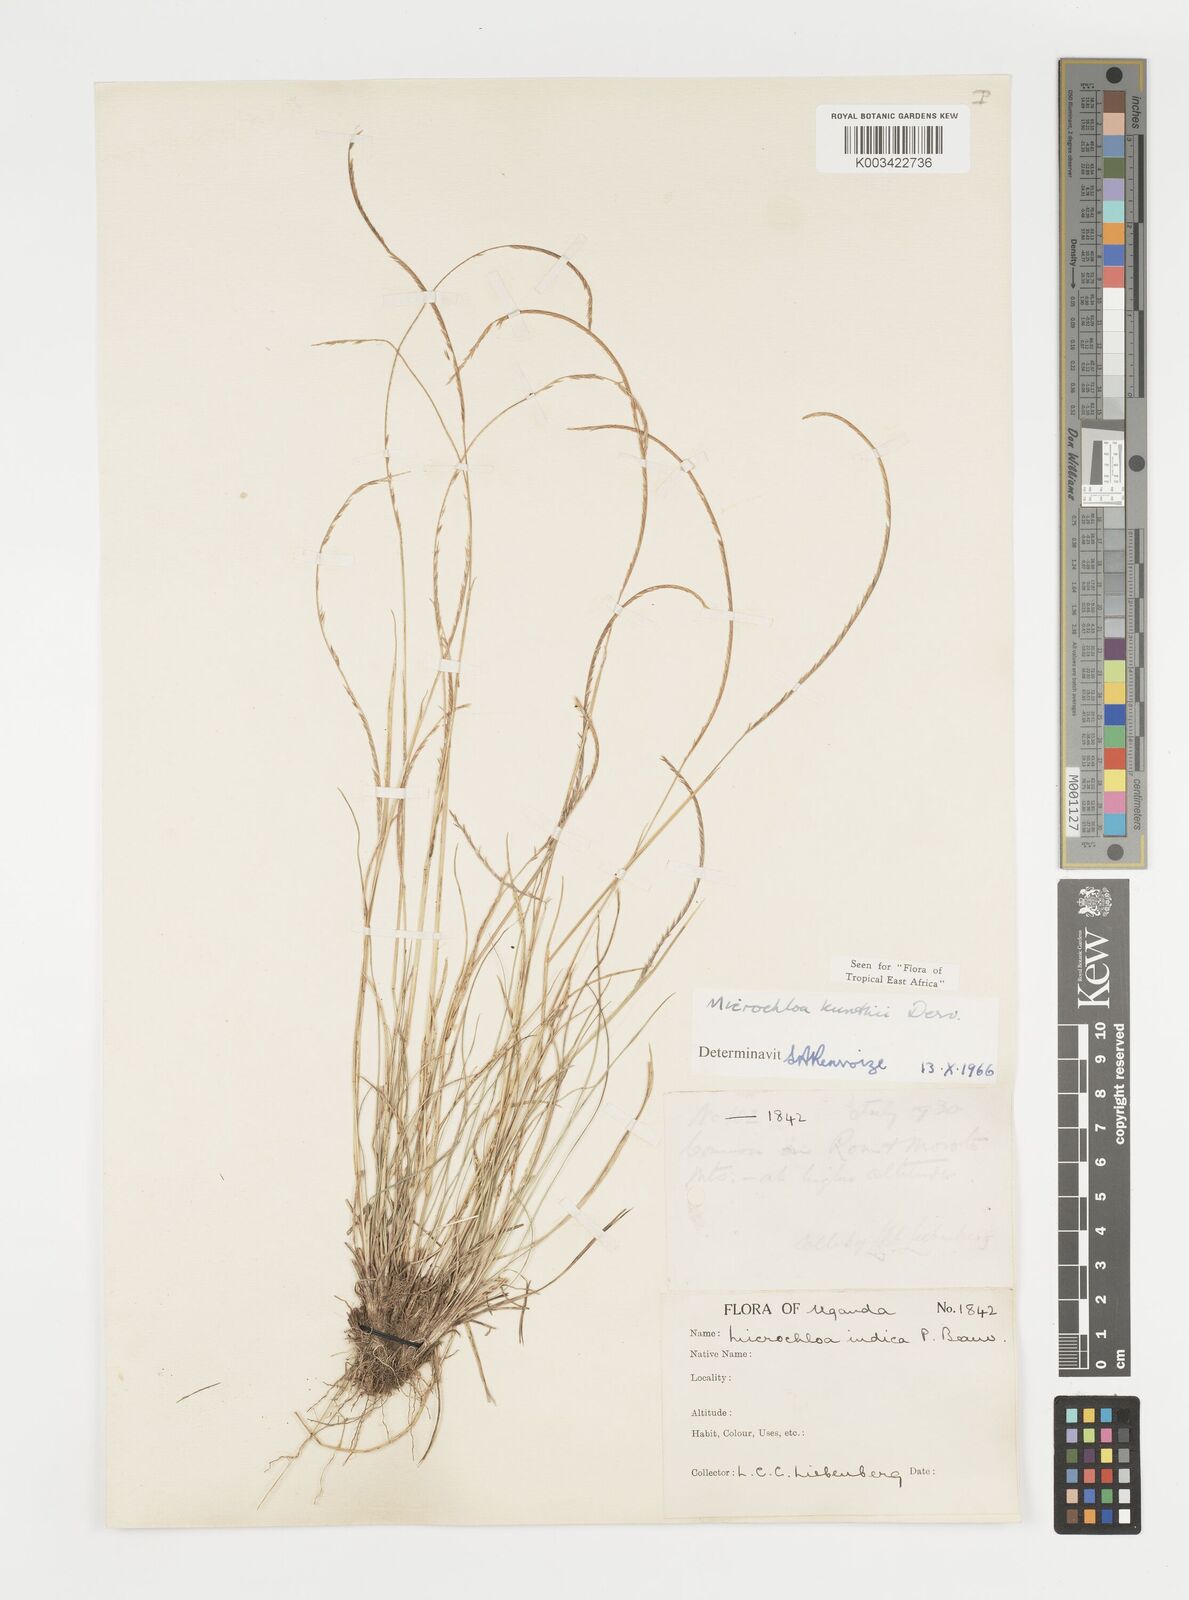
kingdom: Plantae
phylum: Tracheophyta
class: Liliopsida
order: Poales
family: Poaceae
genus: Microchloa
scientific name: Microchloa kunthii
